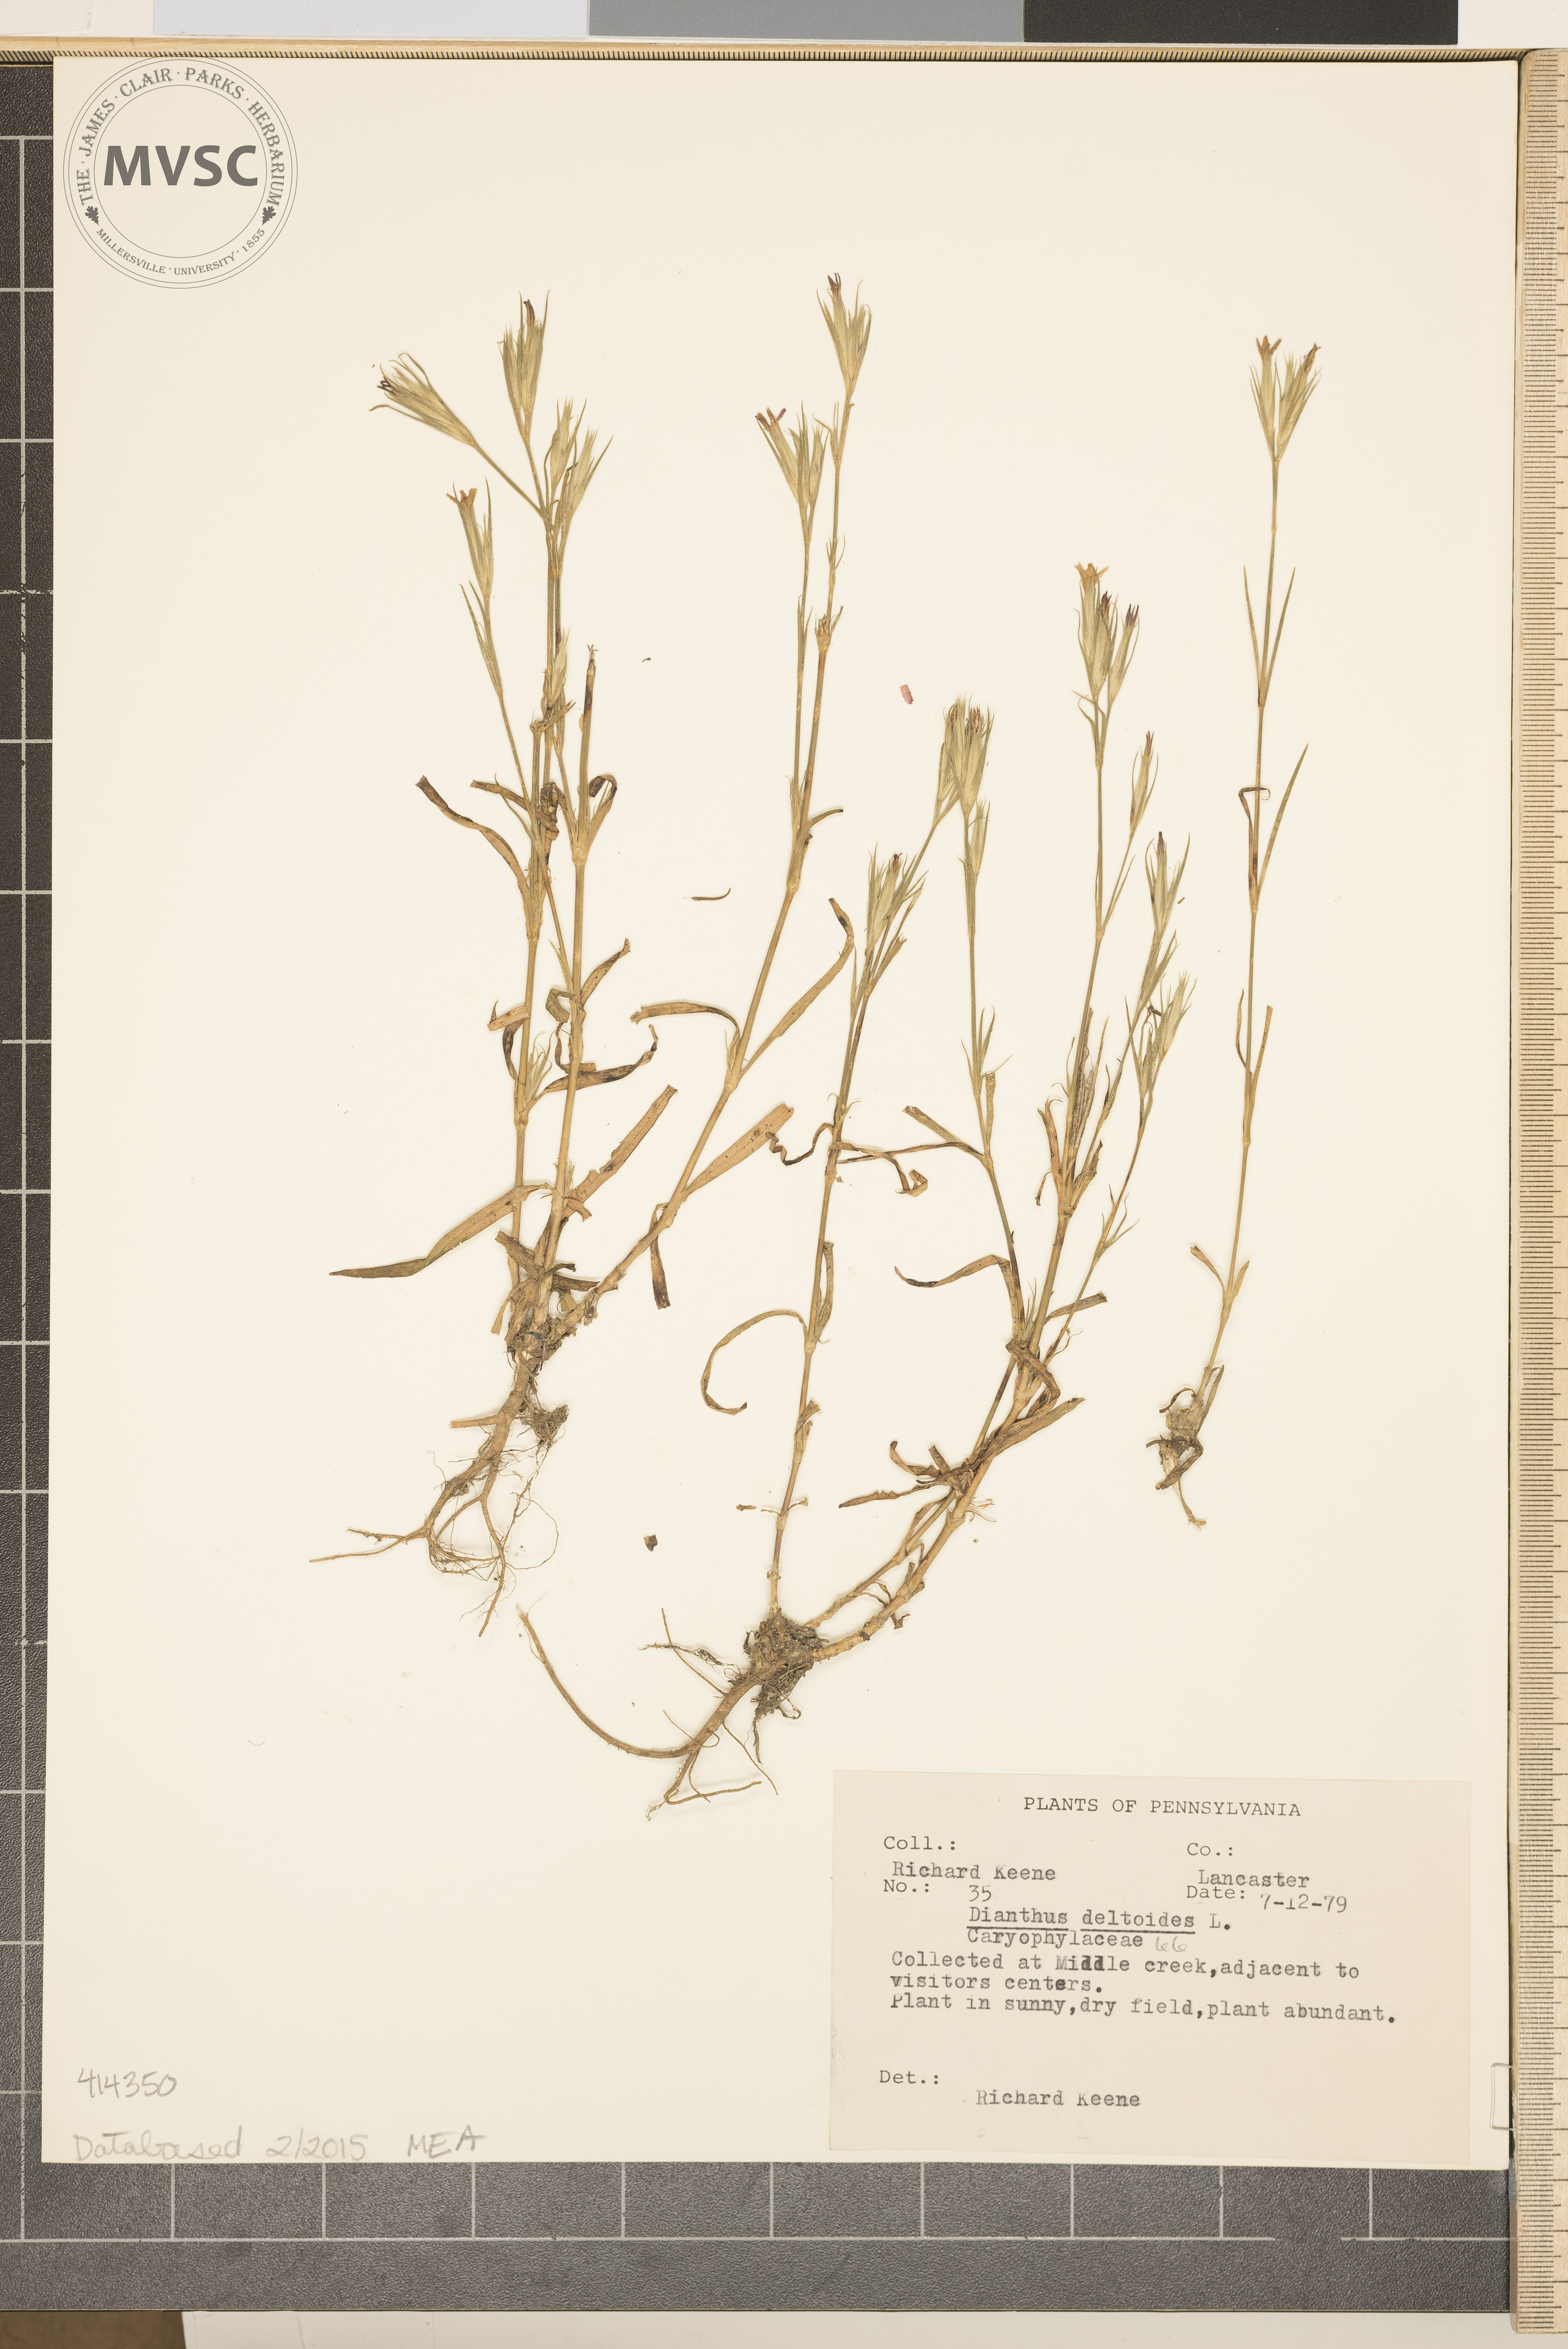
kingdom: Plantae
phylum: Tracheophyta
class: Magnoliopsida
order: Caryophyllales
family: Caryophyllaceae
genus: Dianthus
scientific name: Dianthus armeria
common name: Deptford pink
